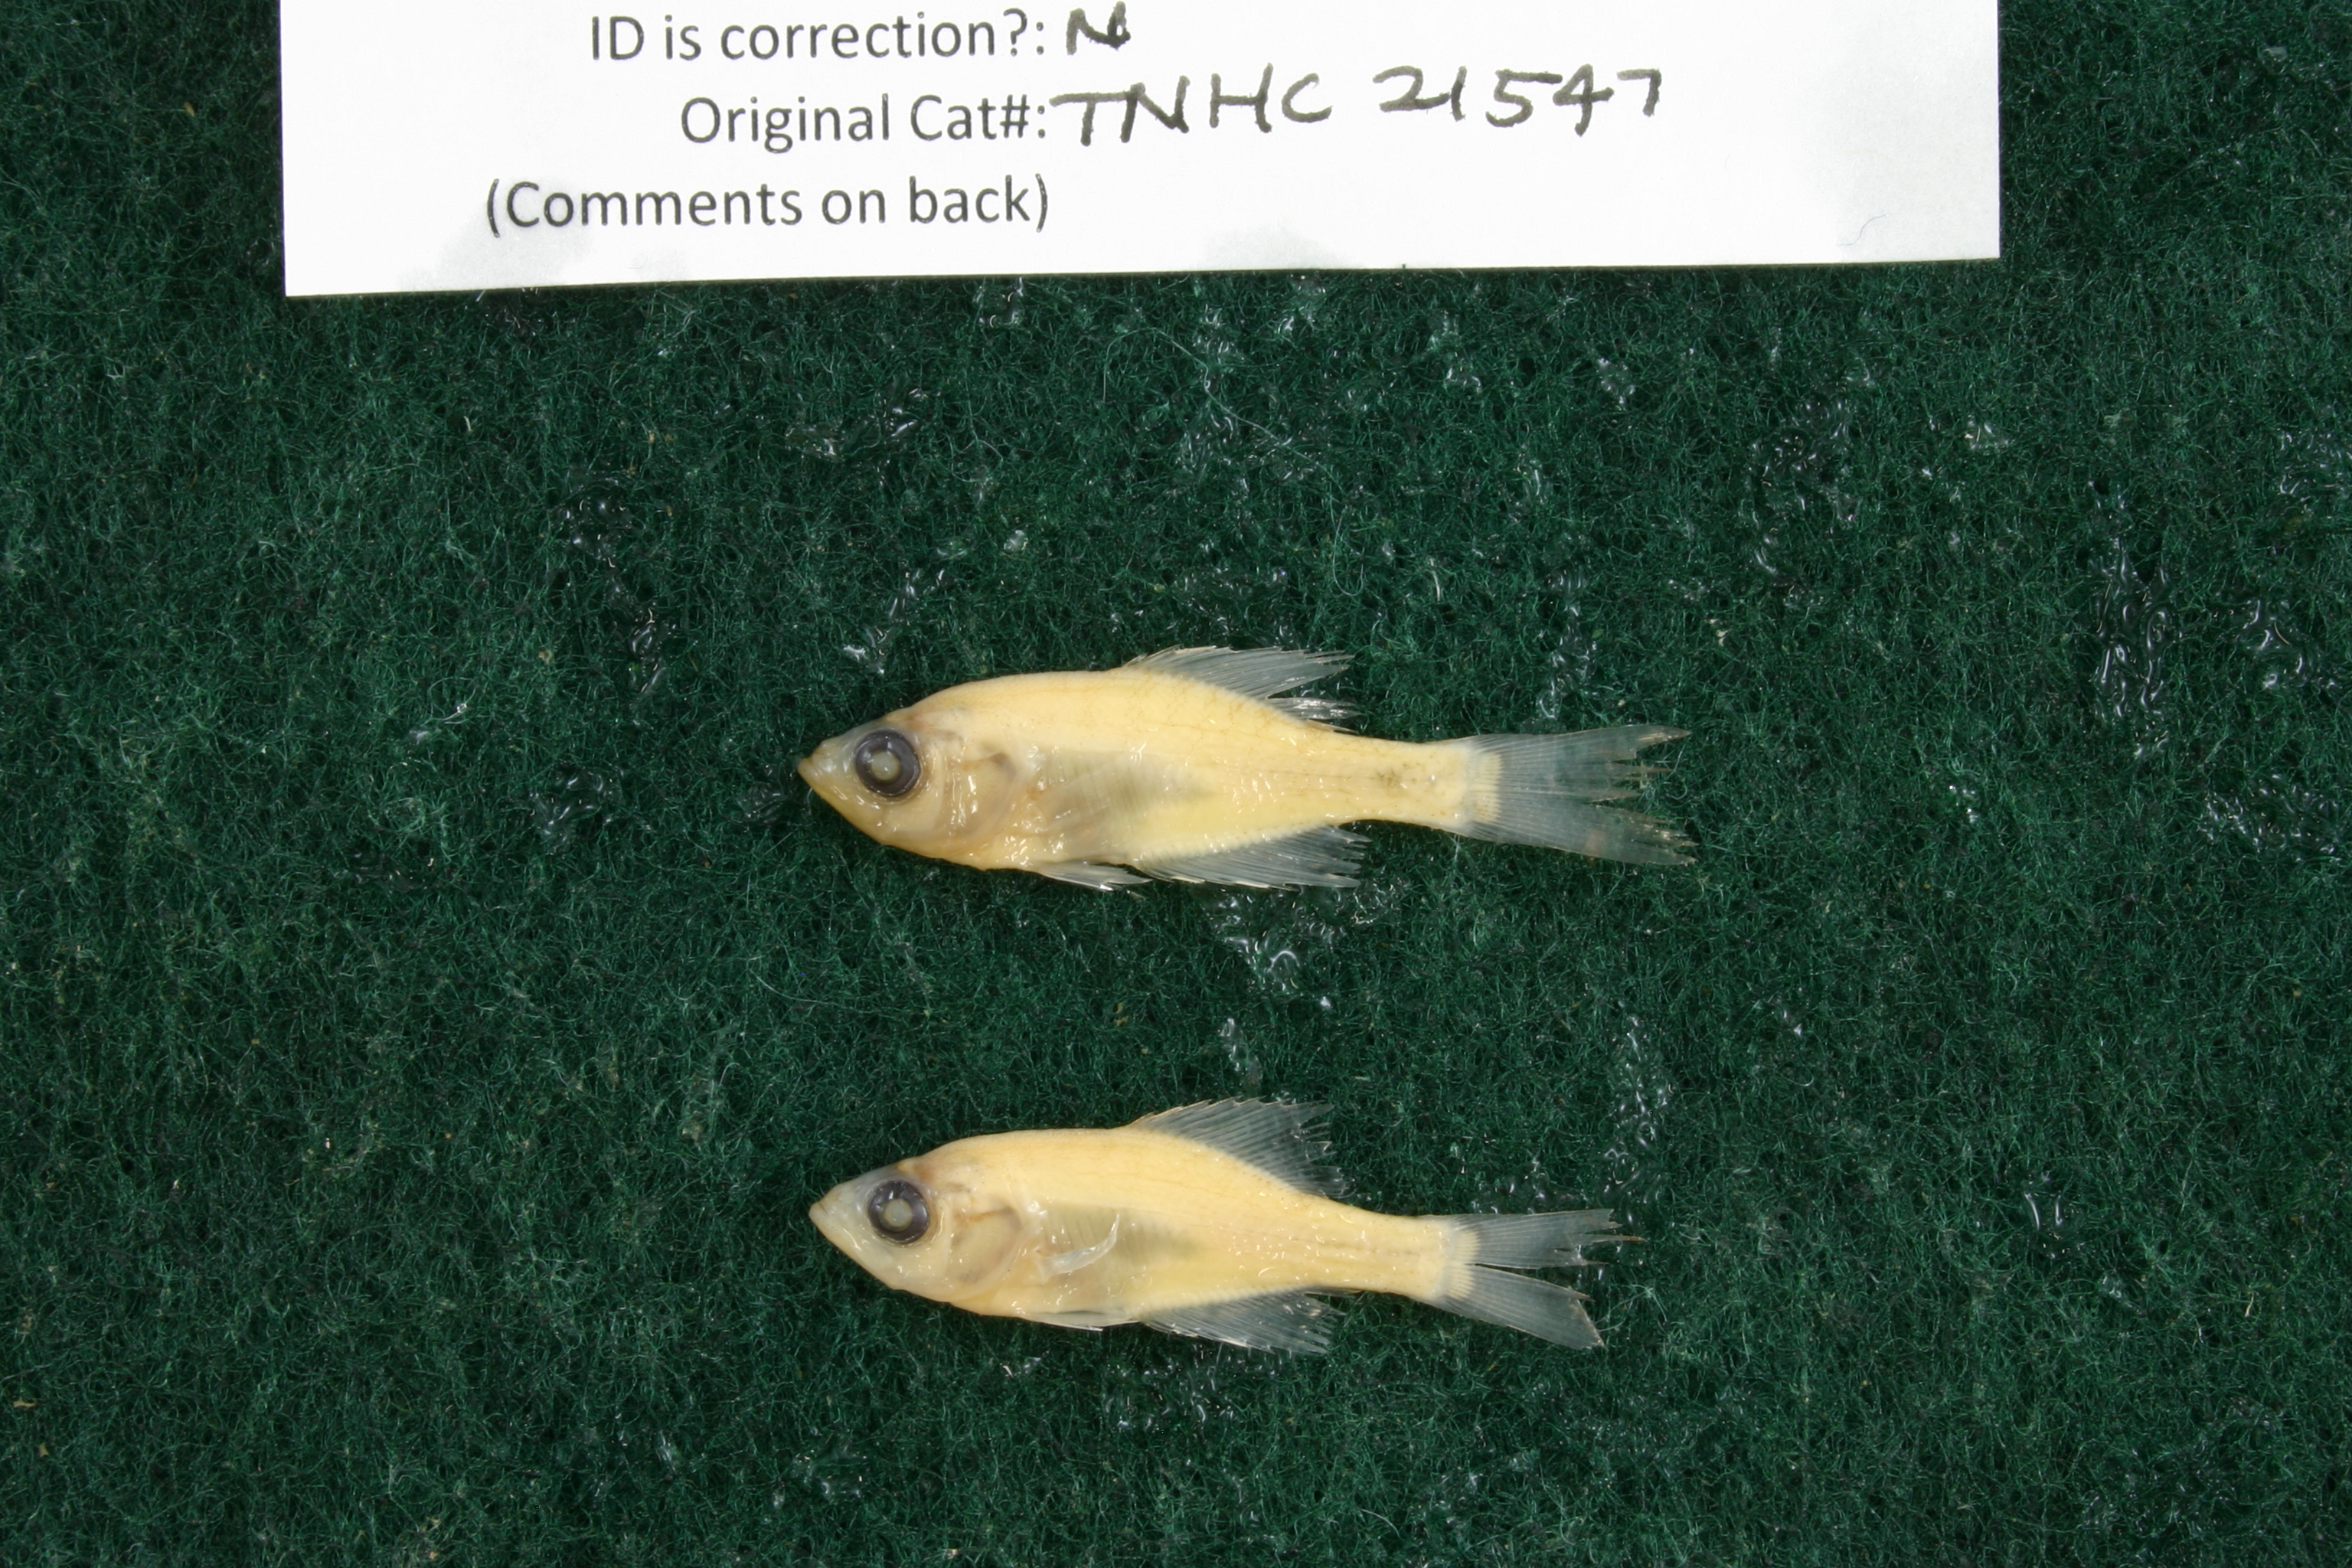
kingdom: Animalia
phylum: Chordata
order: Perciformes
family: Centrarchidae
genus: Pomoxis
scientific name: Pomoxis annularis
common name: White crappie
